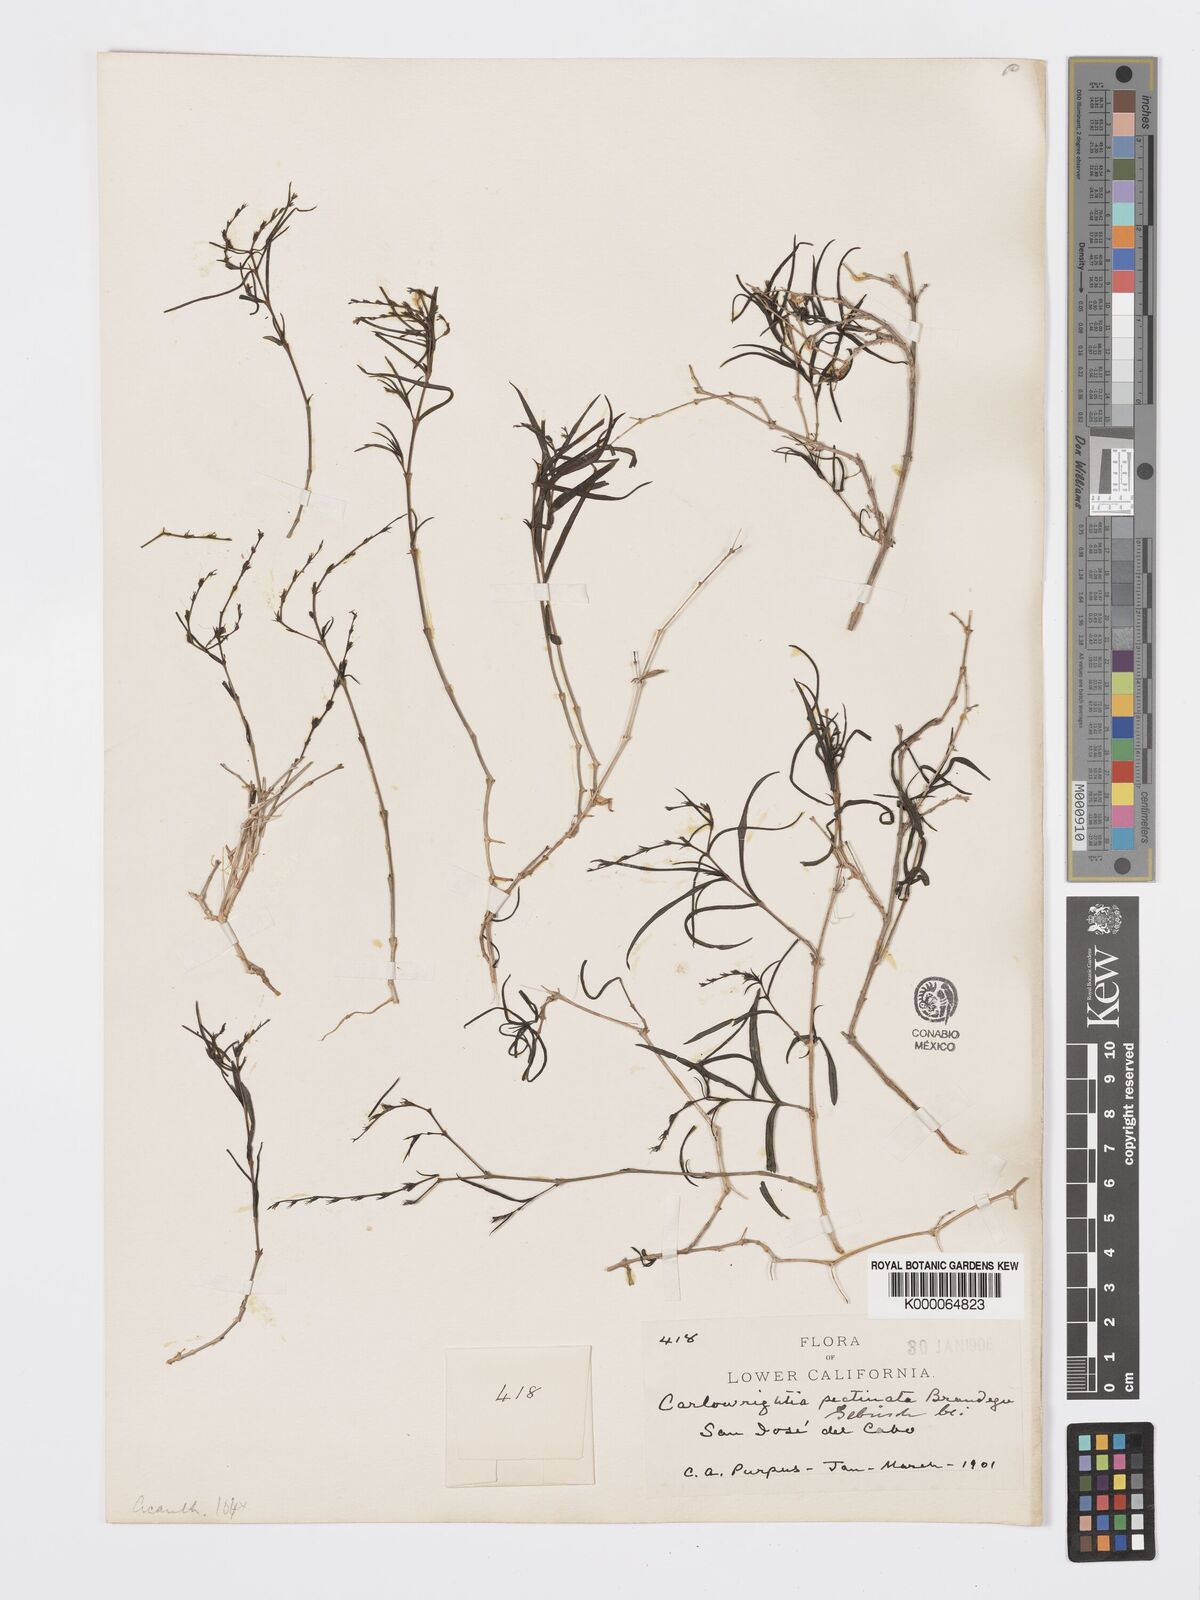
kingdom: Plantae
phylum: Tracheophyta
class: Magnoliopsida
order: Lamiales
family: Acanthaceae
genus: Carlowrightia
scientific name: Carlowrightia pectinata
